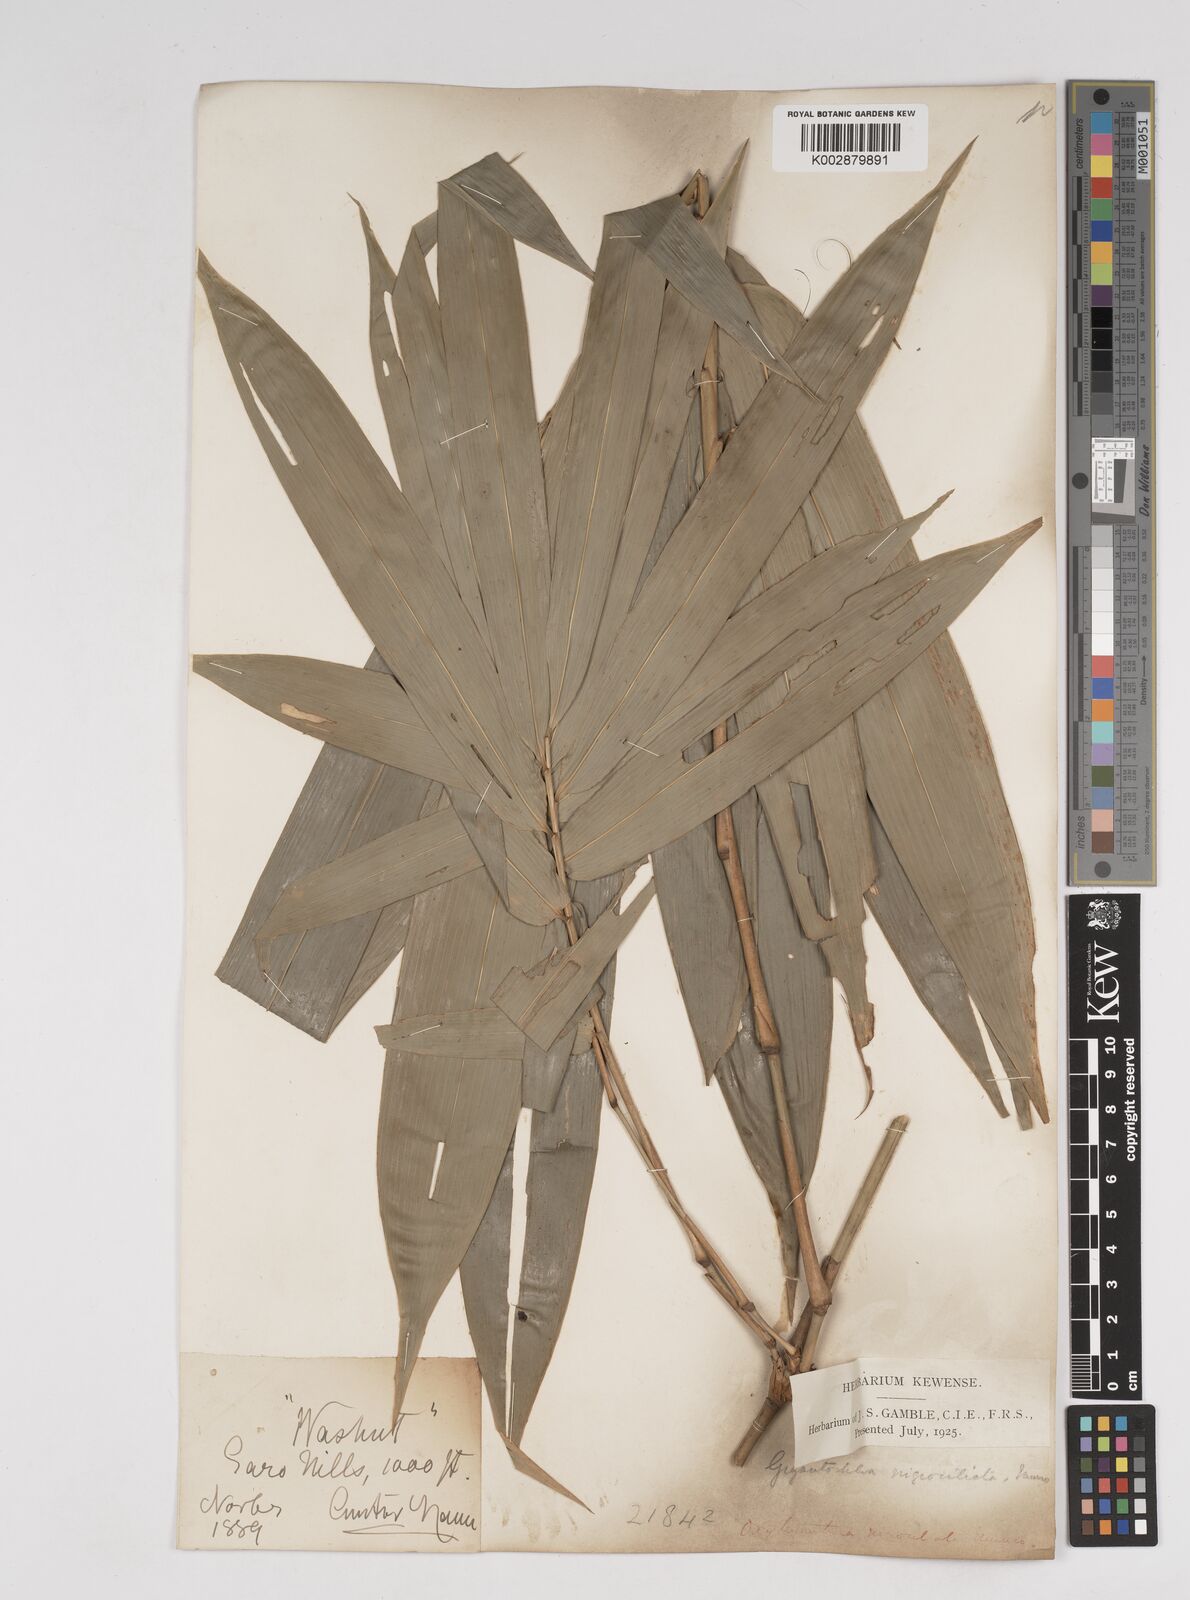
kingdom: Plantae
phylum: Tracheophyta
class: Liliopsida
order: Poales
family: Poaceae
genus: Gigantochloa
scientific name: Gigantochloa
